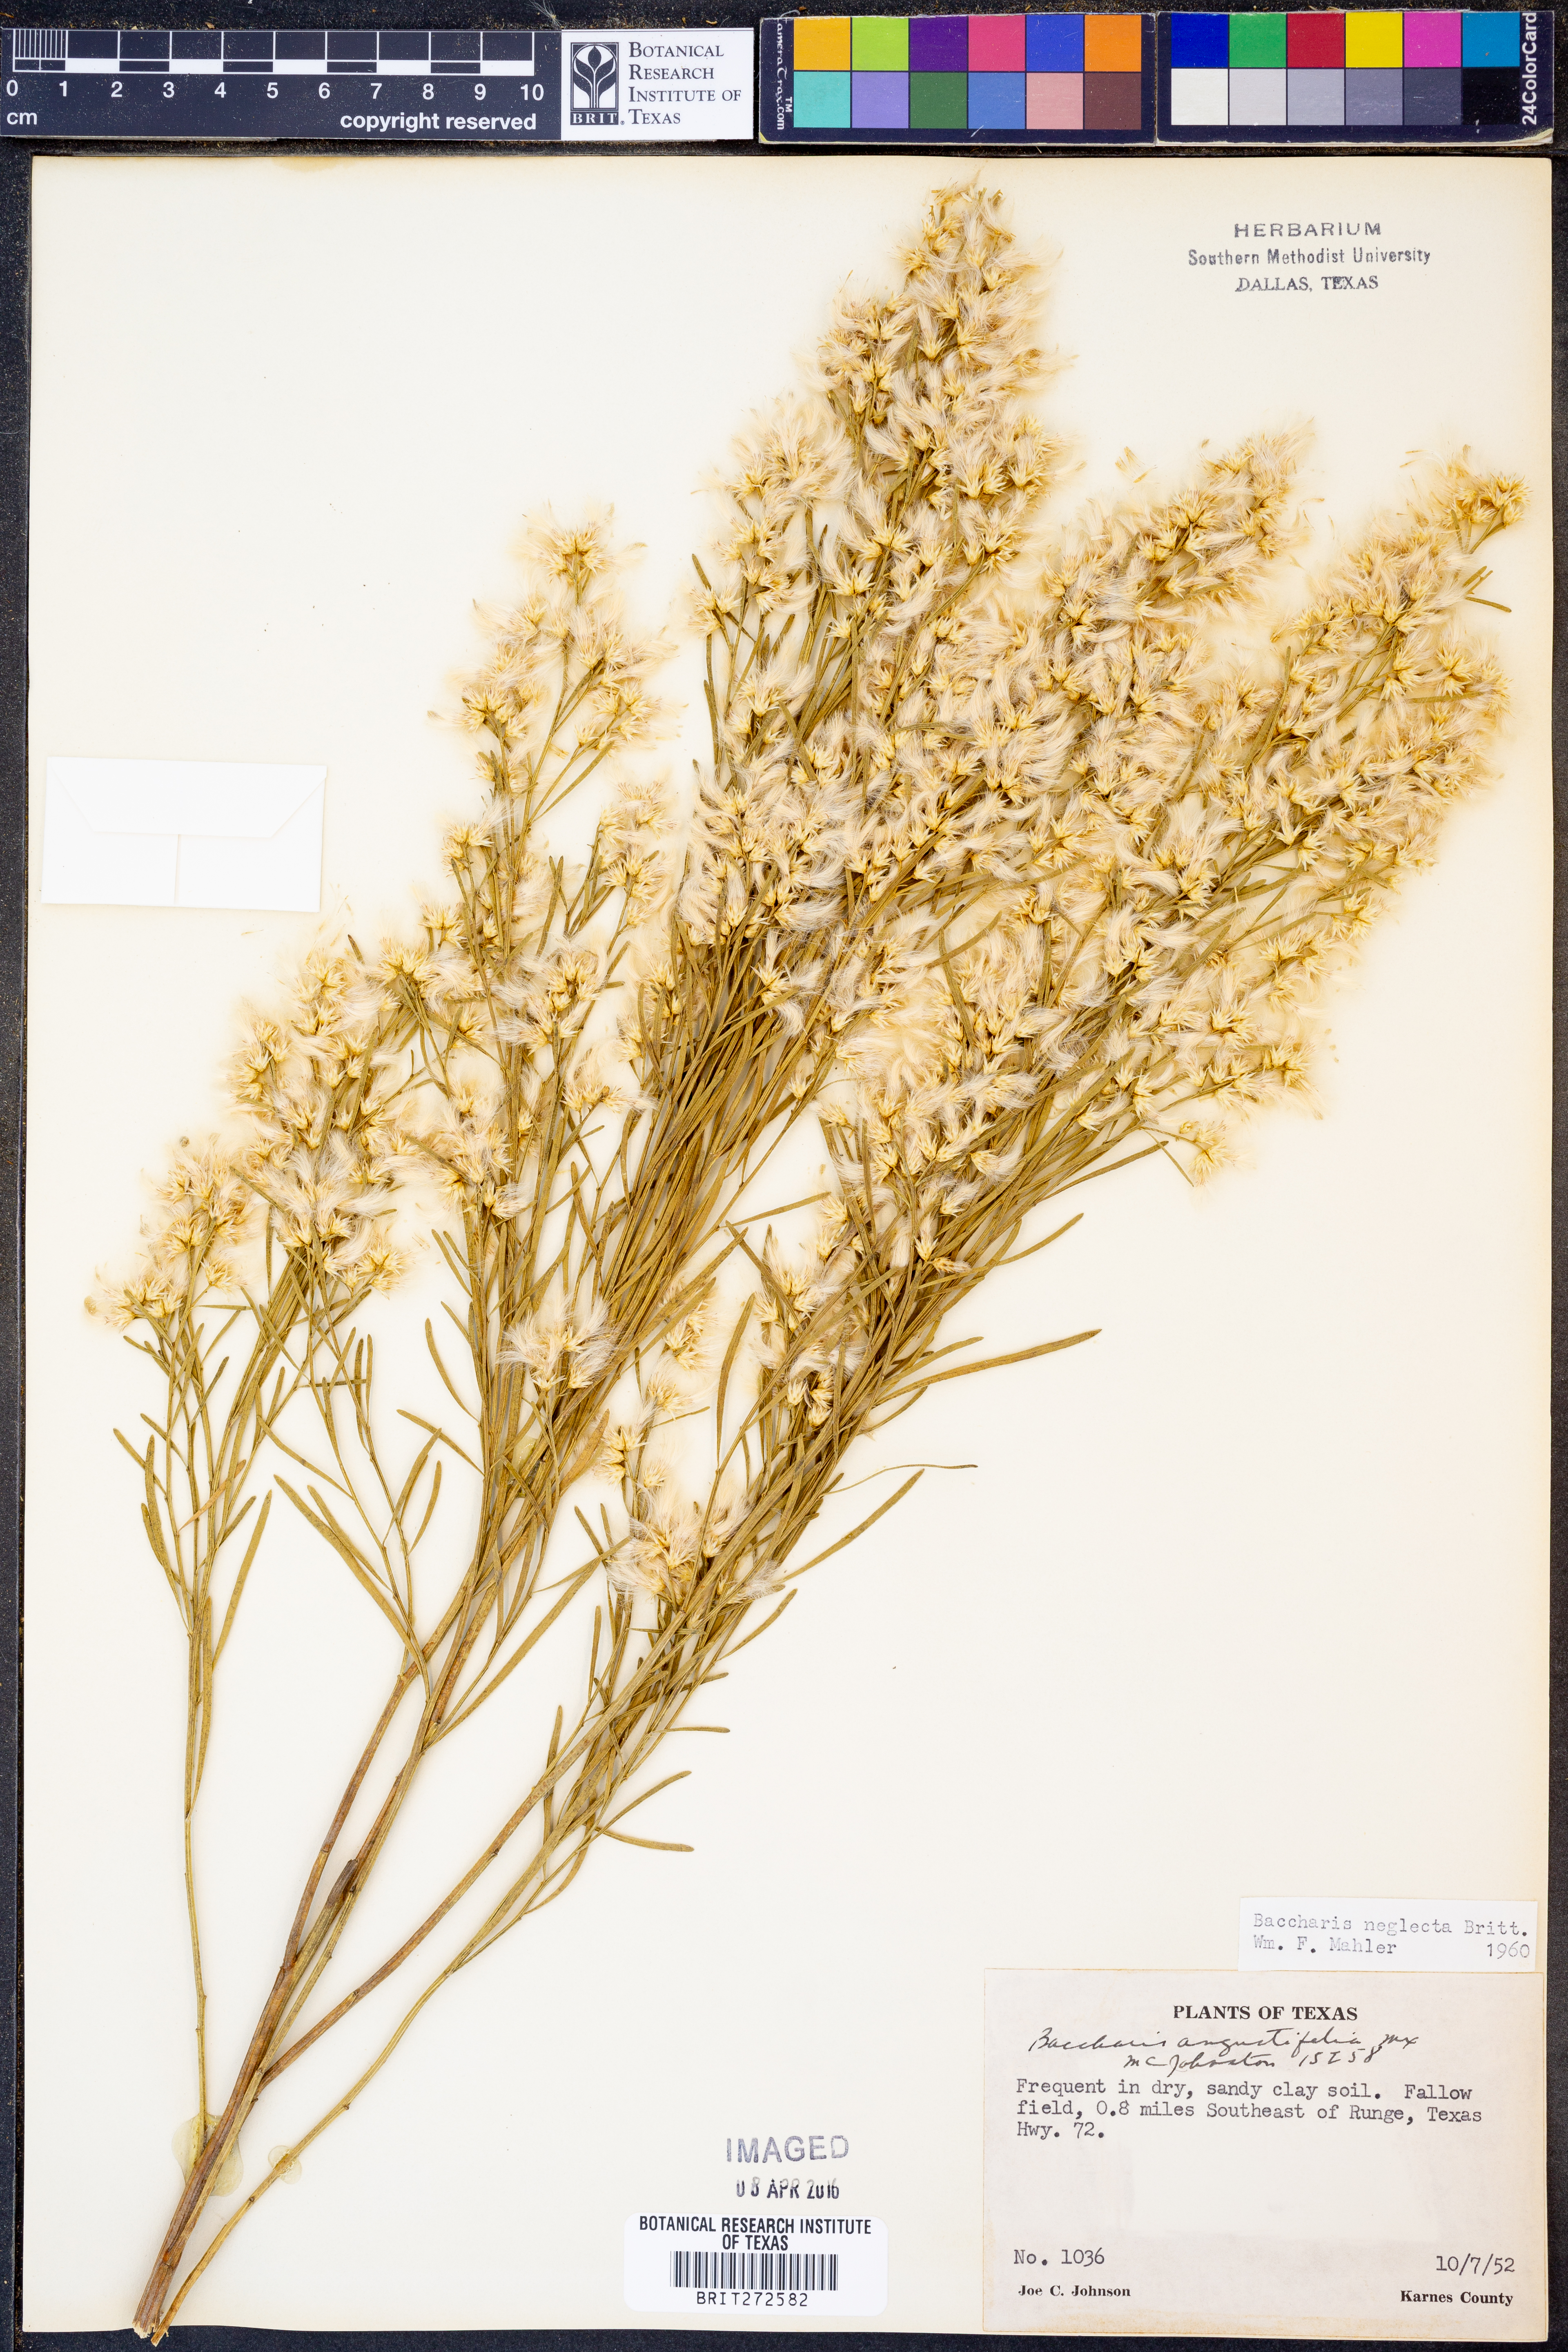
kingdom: Plantae
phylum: Tracheophyta
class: Magnoliopsida
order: Asterales
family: Asteraceae
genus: Baccharis
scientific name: Baccharis neglecta
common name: Roosevelt-weed
